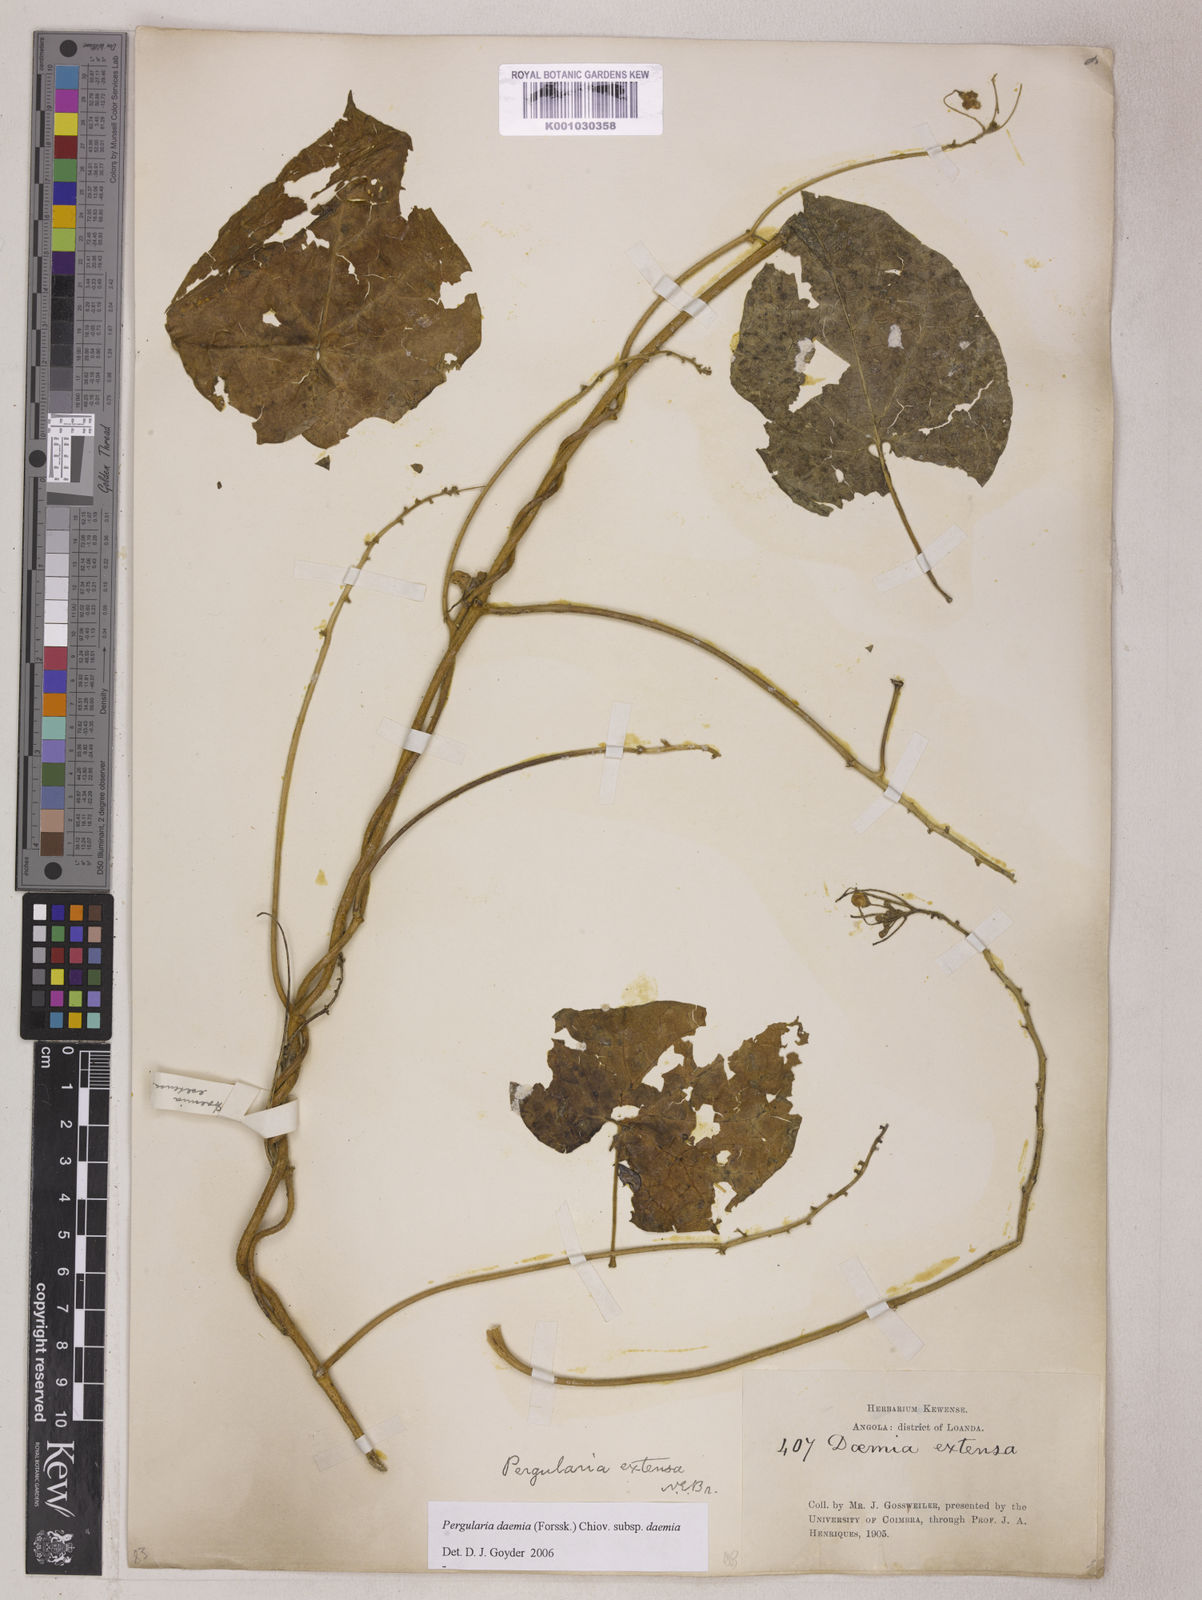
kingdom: Plantae
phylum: Tracheophyta
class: Magnoliopsida
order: Gentianales
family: Apocynaceae
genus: Pergularia
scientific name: Pergularia daemia
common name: Trellis-vine
